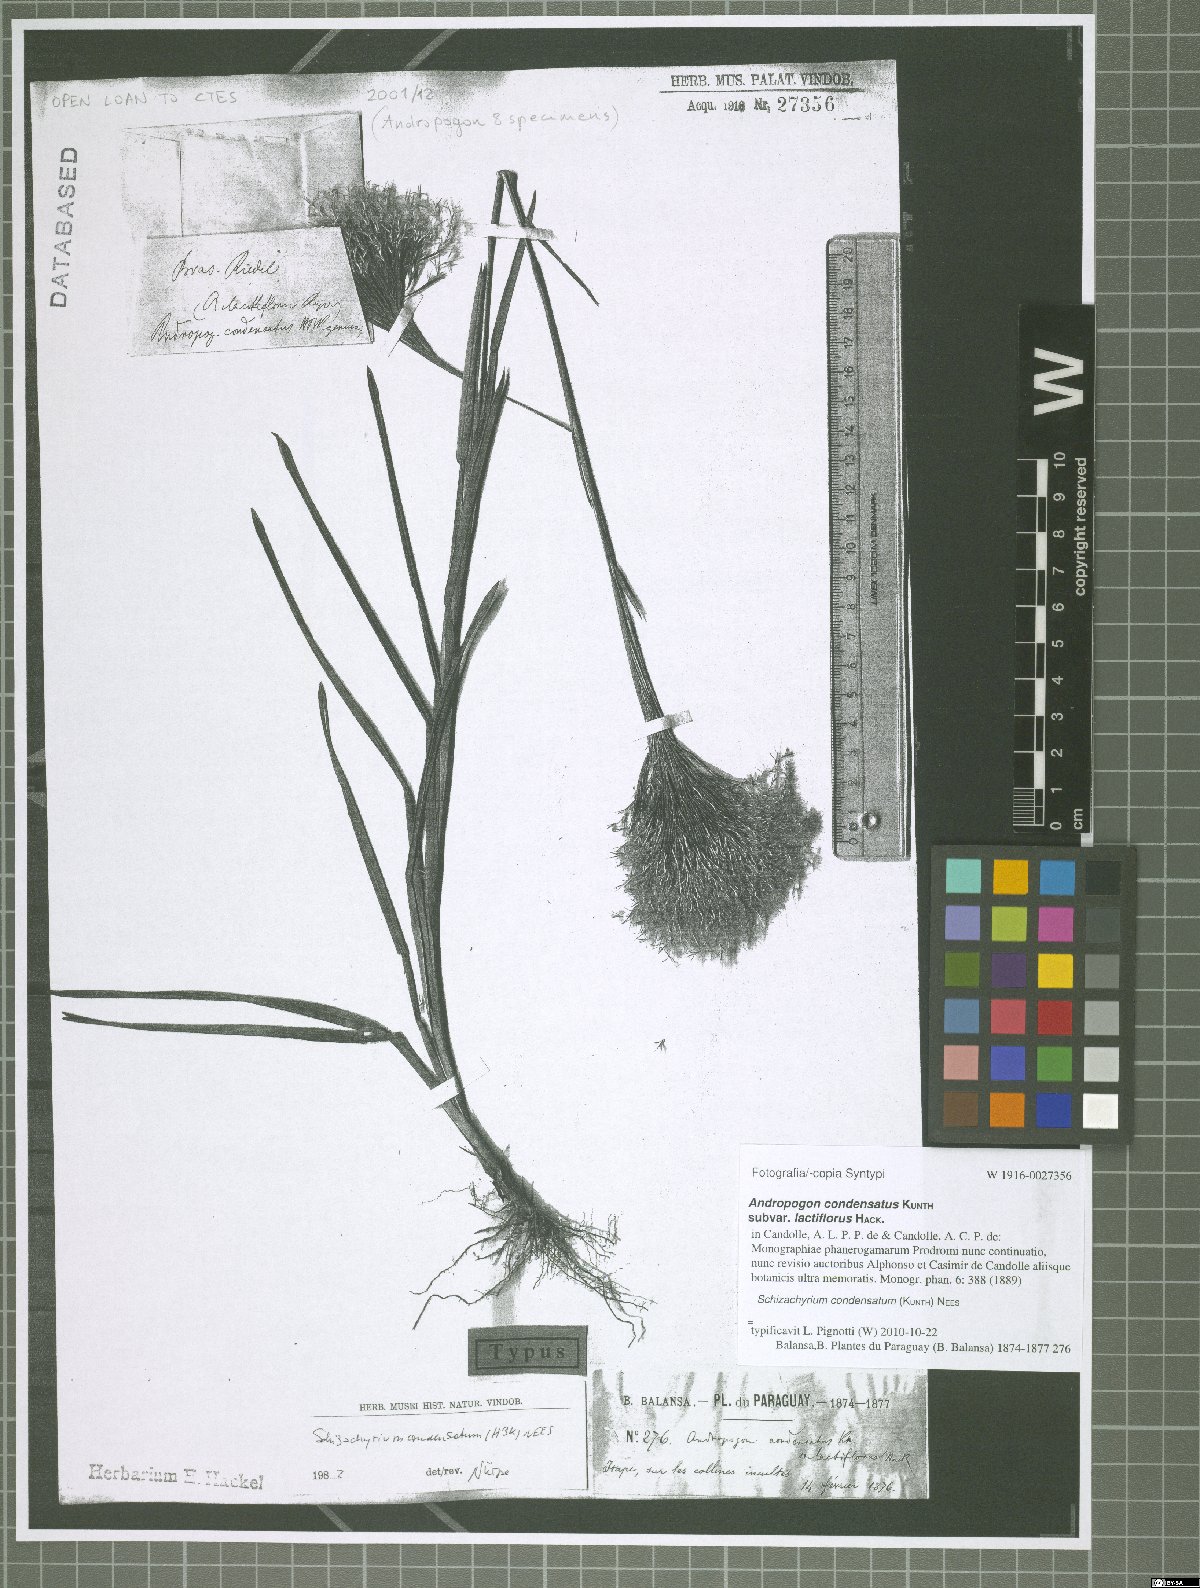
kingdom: Plantae
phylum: Tracheophyta
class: Liliopsida
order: Poales
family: Poaceae
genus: Schizachyrium
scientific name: Schizachyrium condensatum
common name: Bush beardgrass
